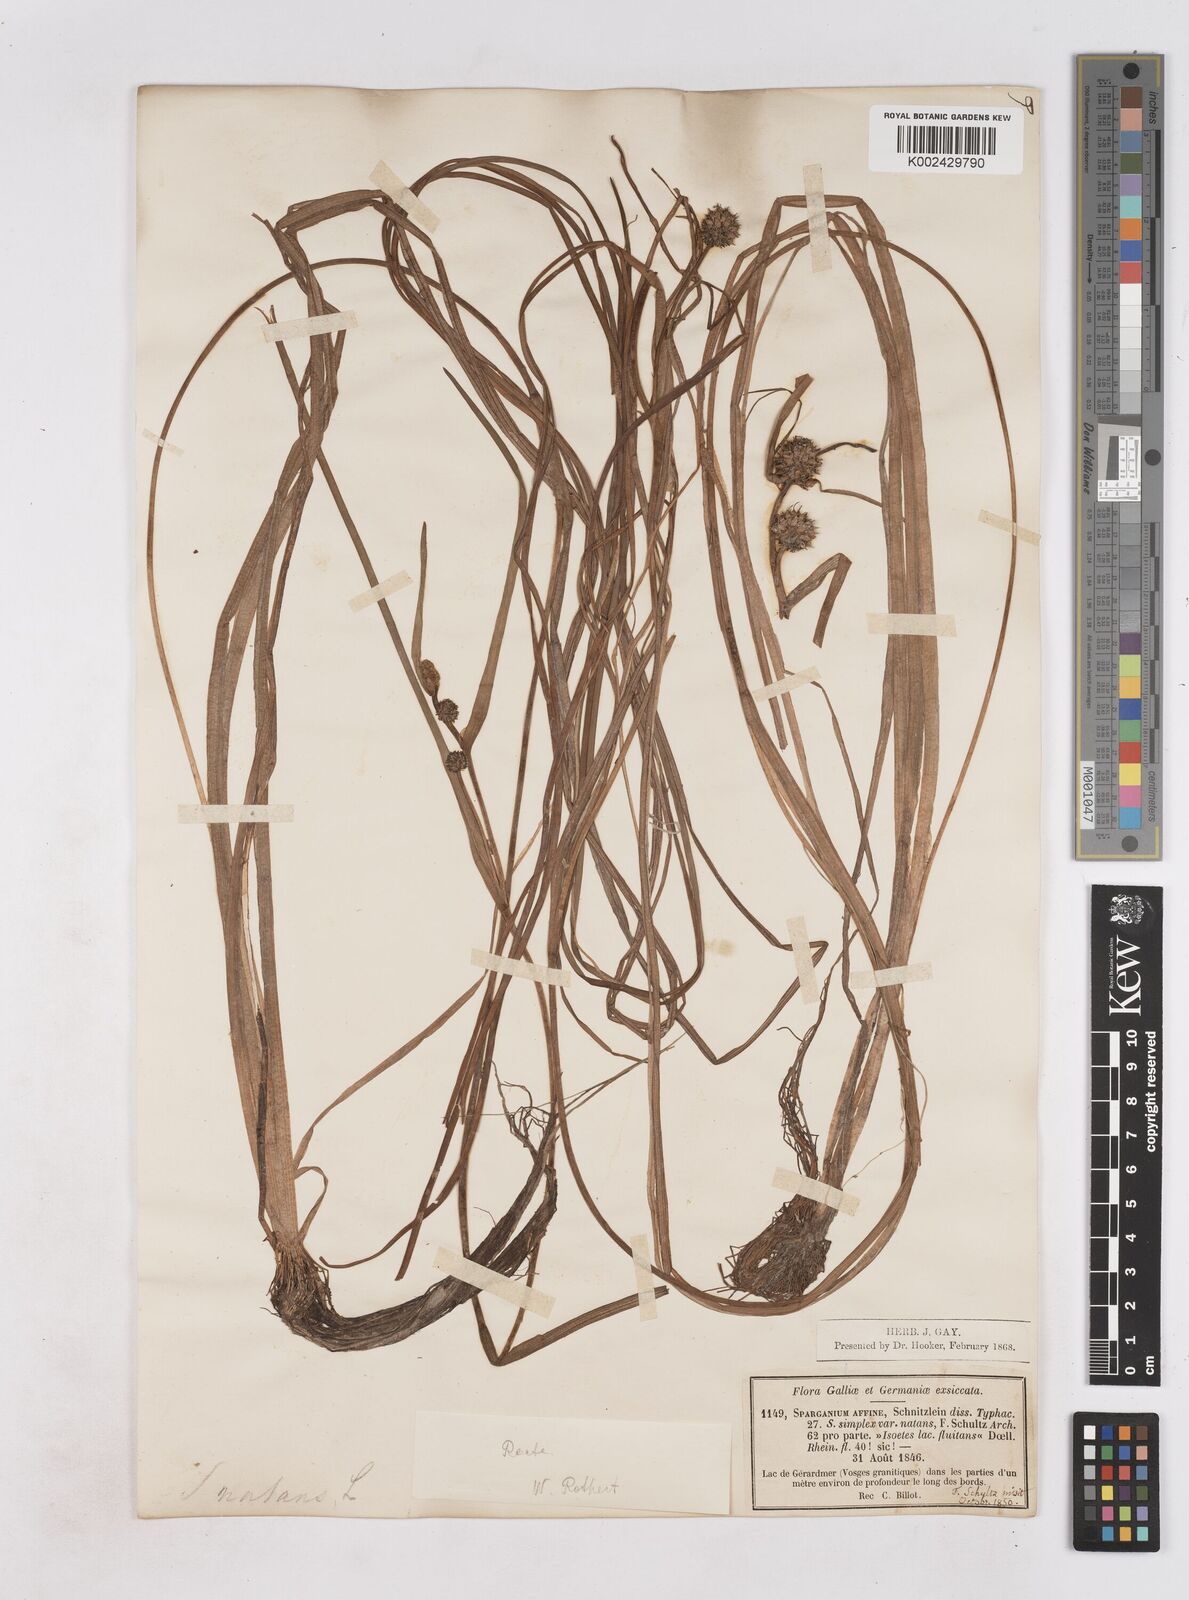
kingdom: Plantae
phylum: Tracheophyta
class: Liliopsida
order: Poales
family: Typhaceae
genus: Sparganium
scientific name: Sparganium angustifolium
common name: Floating bur-reed
